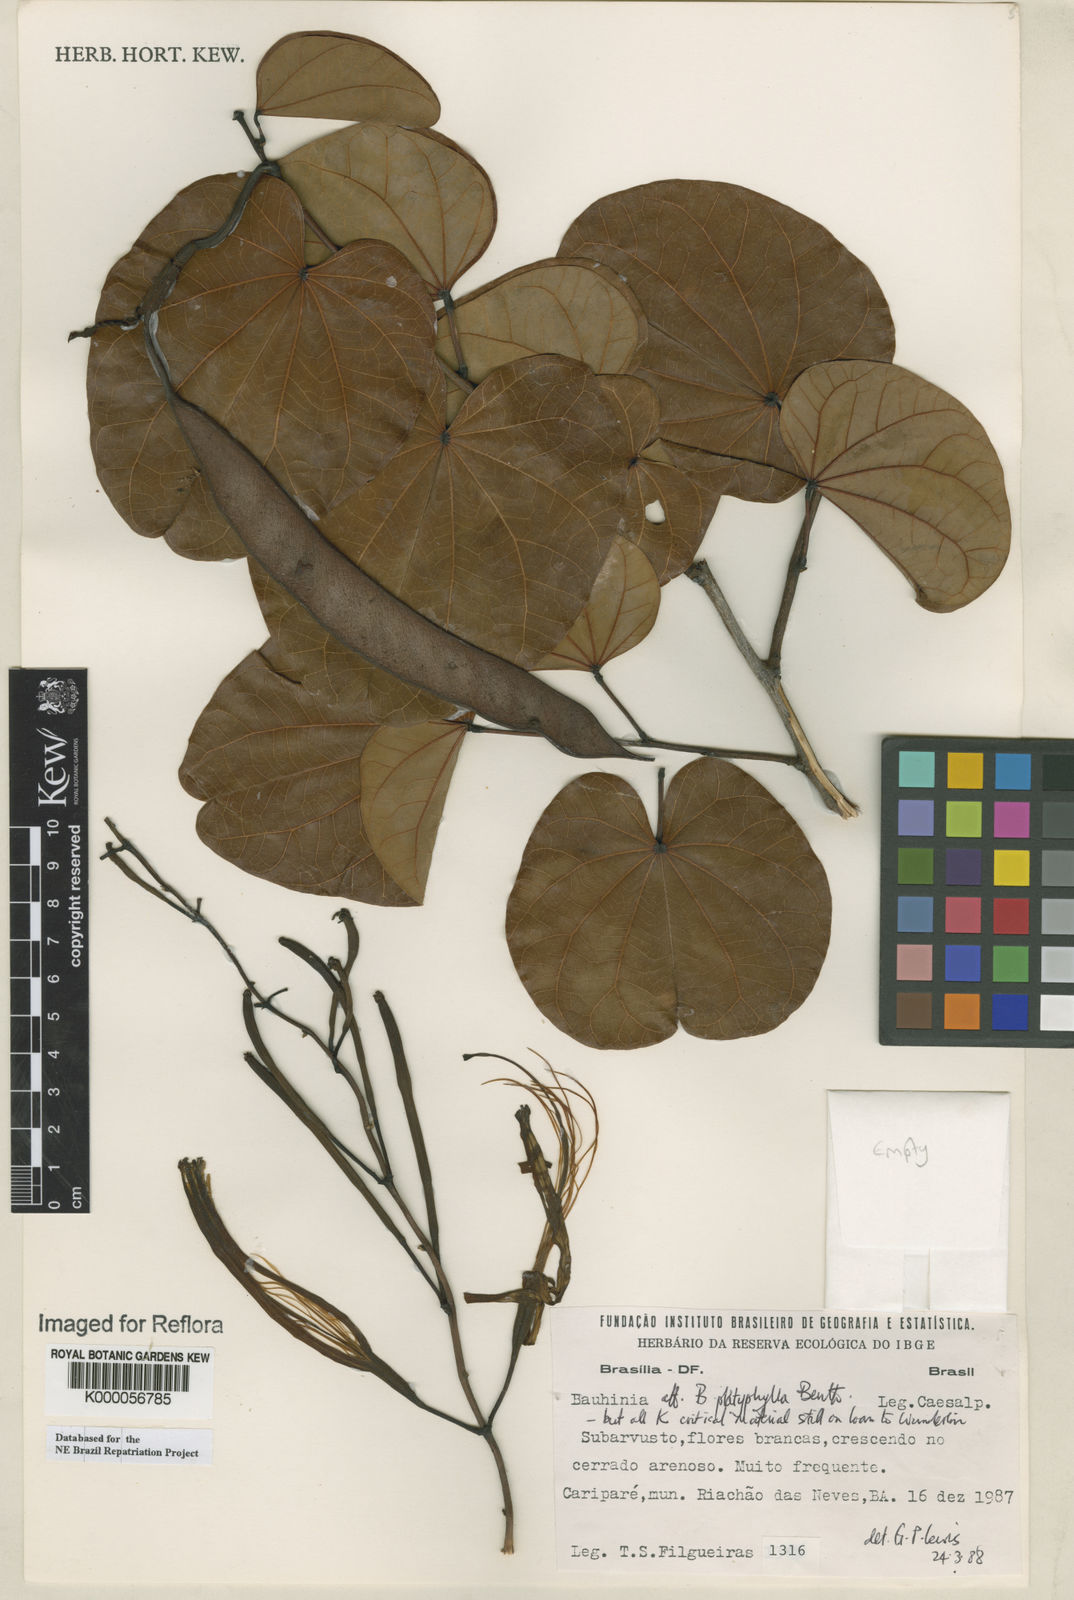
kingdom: Plantae
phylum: Tracheophyta
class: Magnoliopsida
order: Fabales
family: Fabaceae
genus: Bauhinia
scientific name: Bauhinia platyphylla
